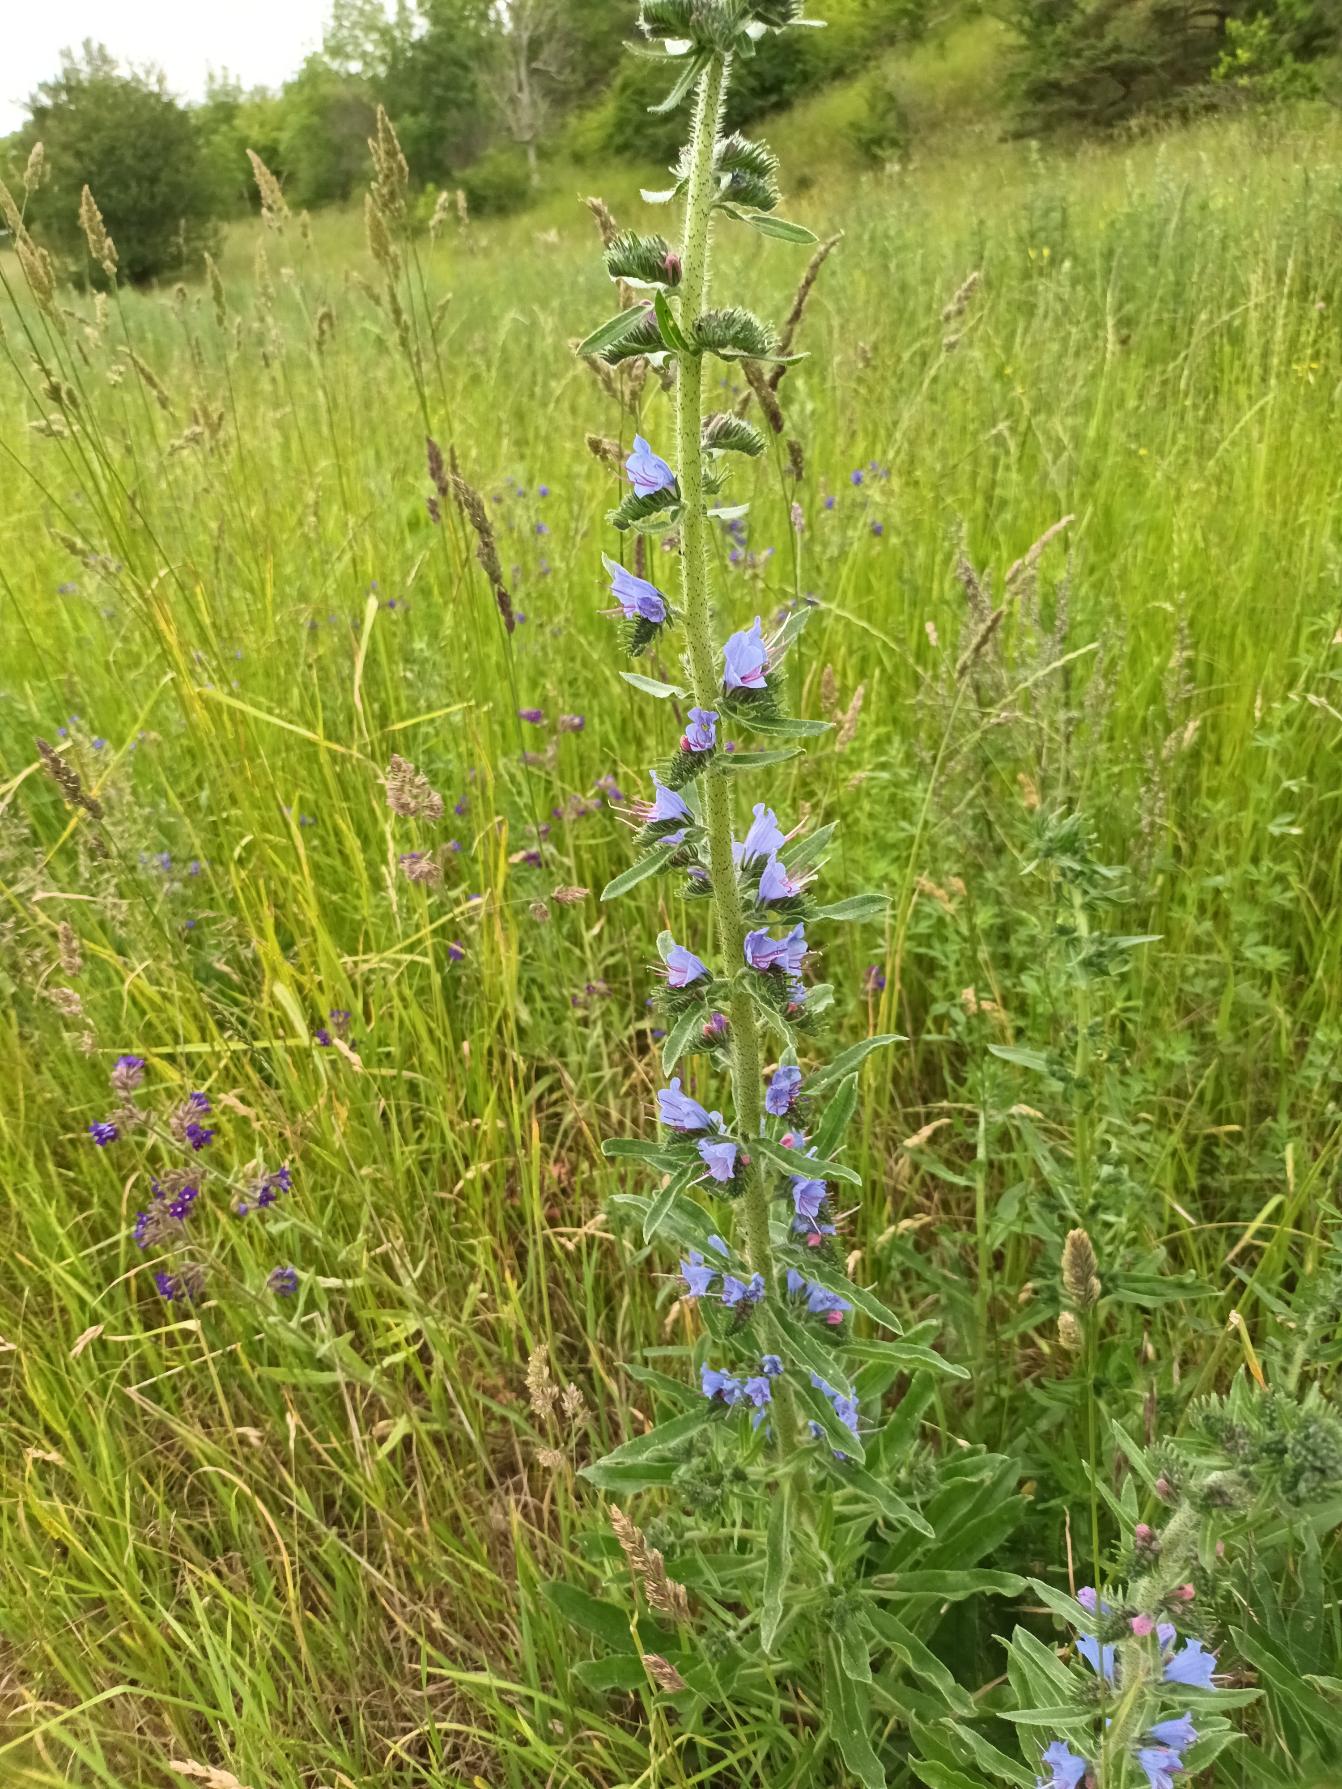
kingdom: Plantae
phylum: Tracheophyta
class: Magnoliopsida
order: Boraginales
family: Boraginaceae
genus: Echium
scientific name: Echium vulgare
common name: Slangehoved
